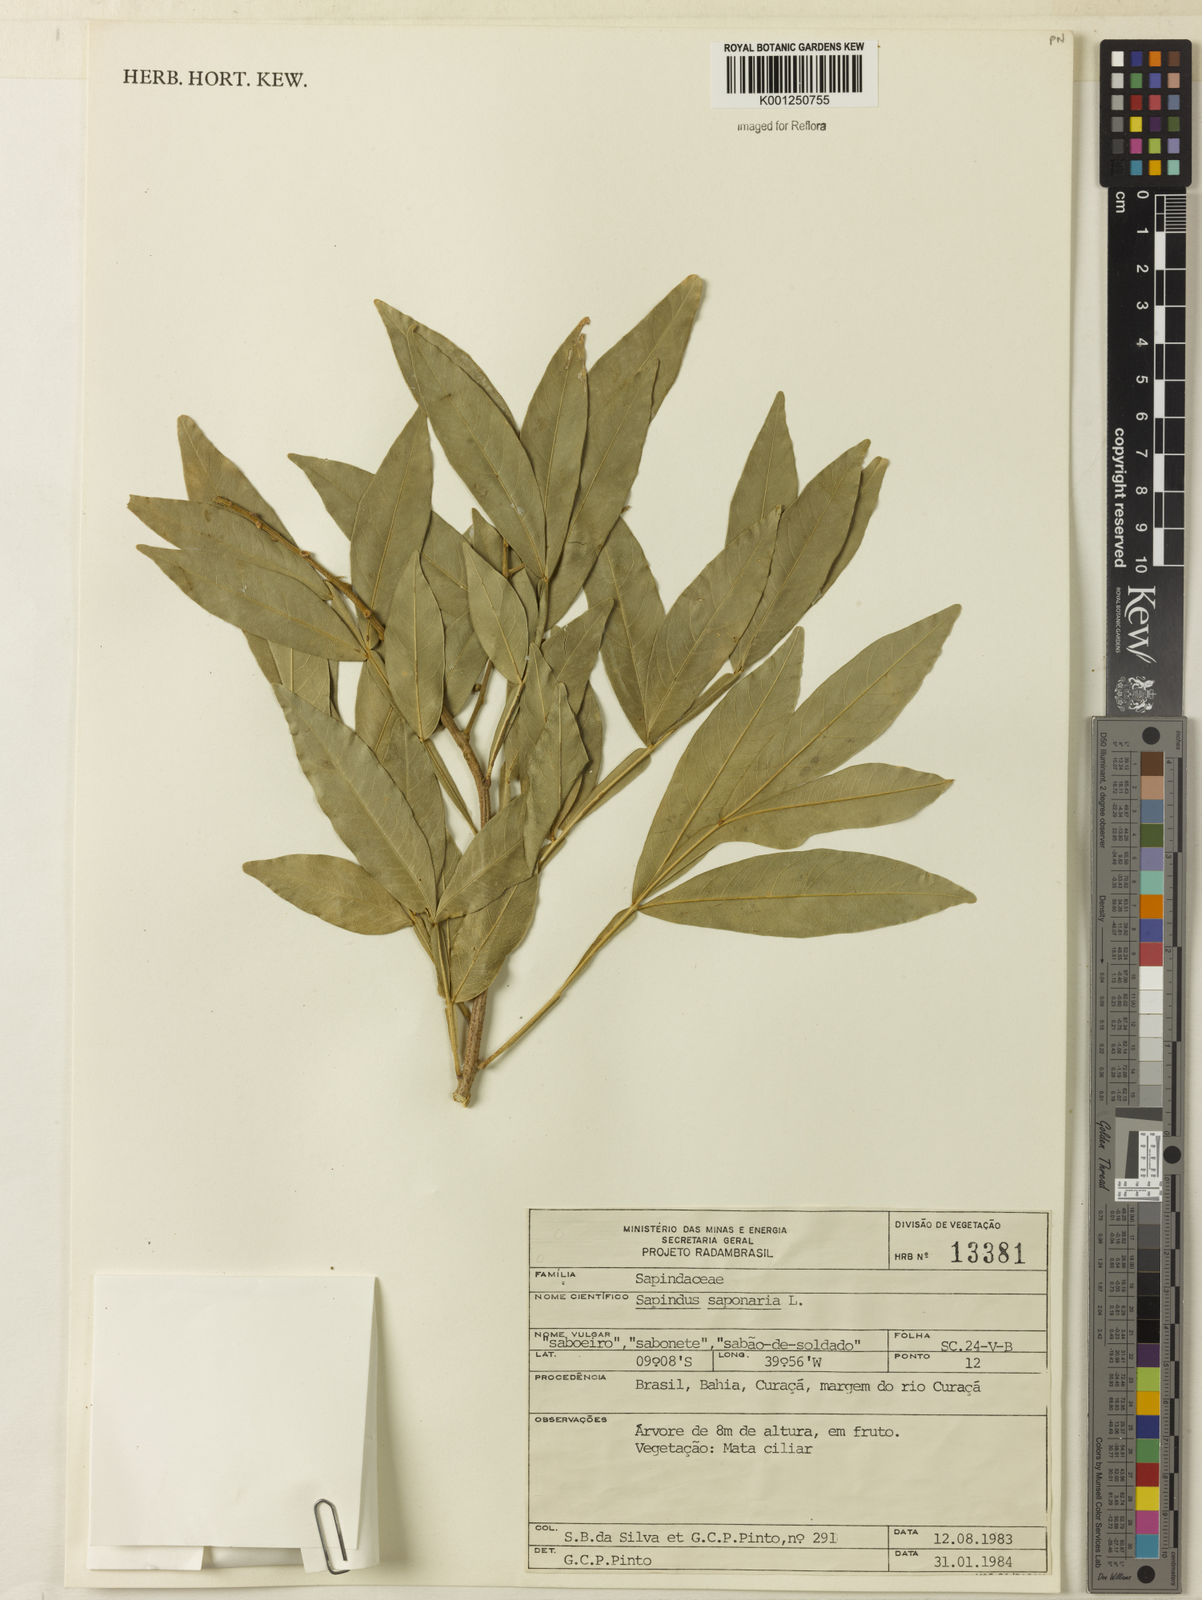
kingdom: Plantae
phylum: Tracheophyta
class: Magnoliopsida
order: Sapindales
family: Sapindaceae
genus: Sapindus
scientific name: Sapindus
